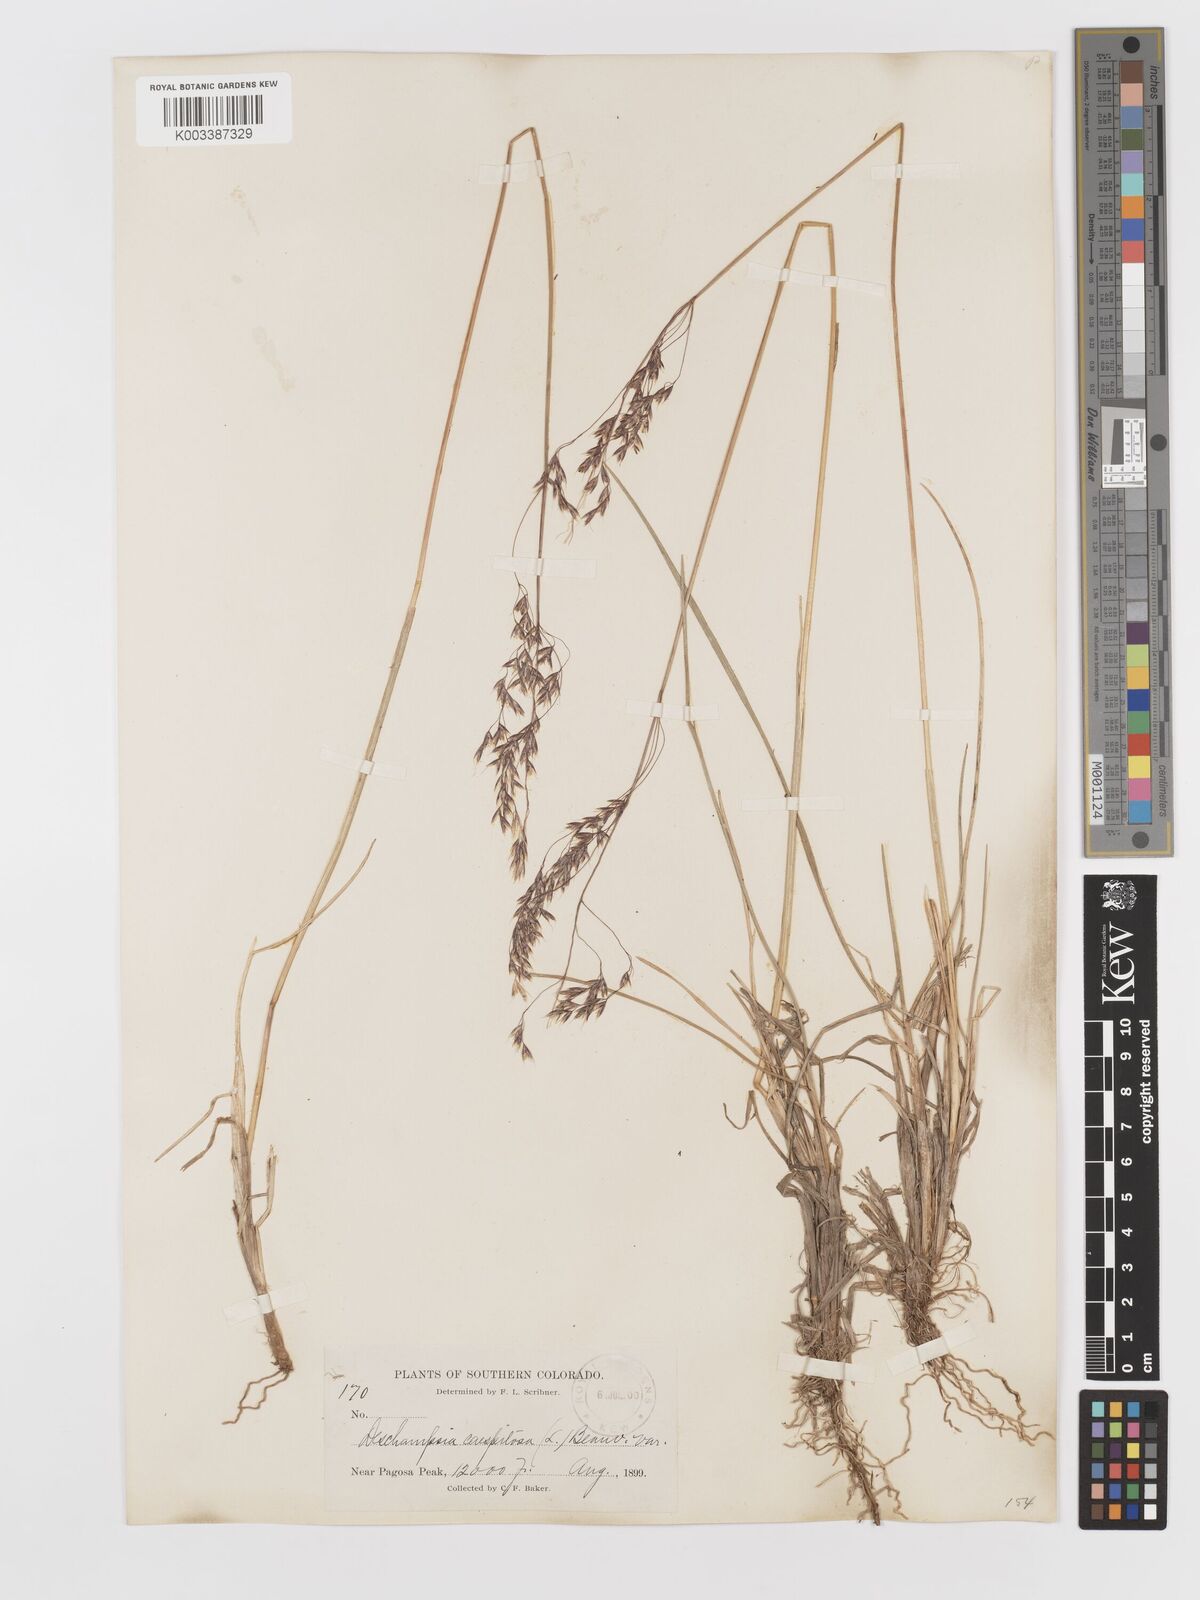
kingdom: Plantae
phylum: Tracheophyta
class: Liliopsida
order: Poales
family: Poaceae
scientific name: Poaceae
